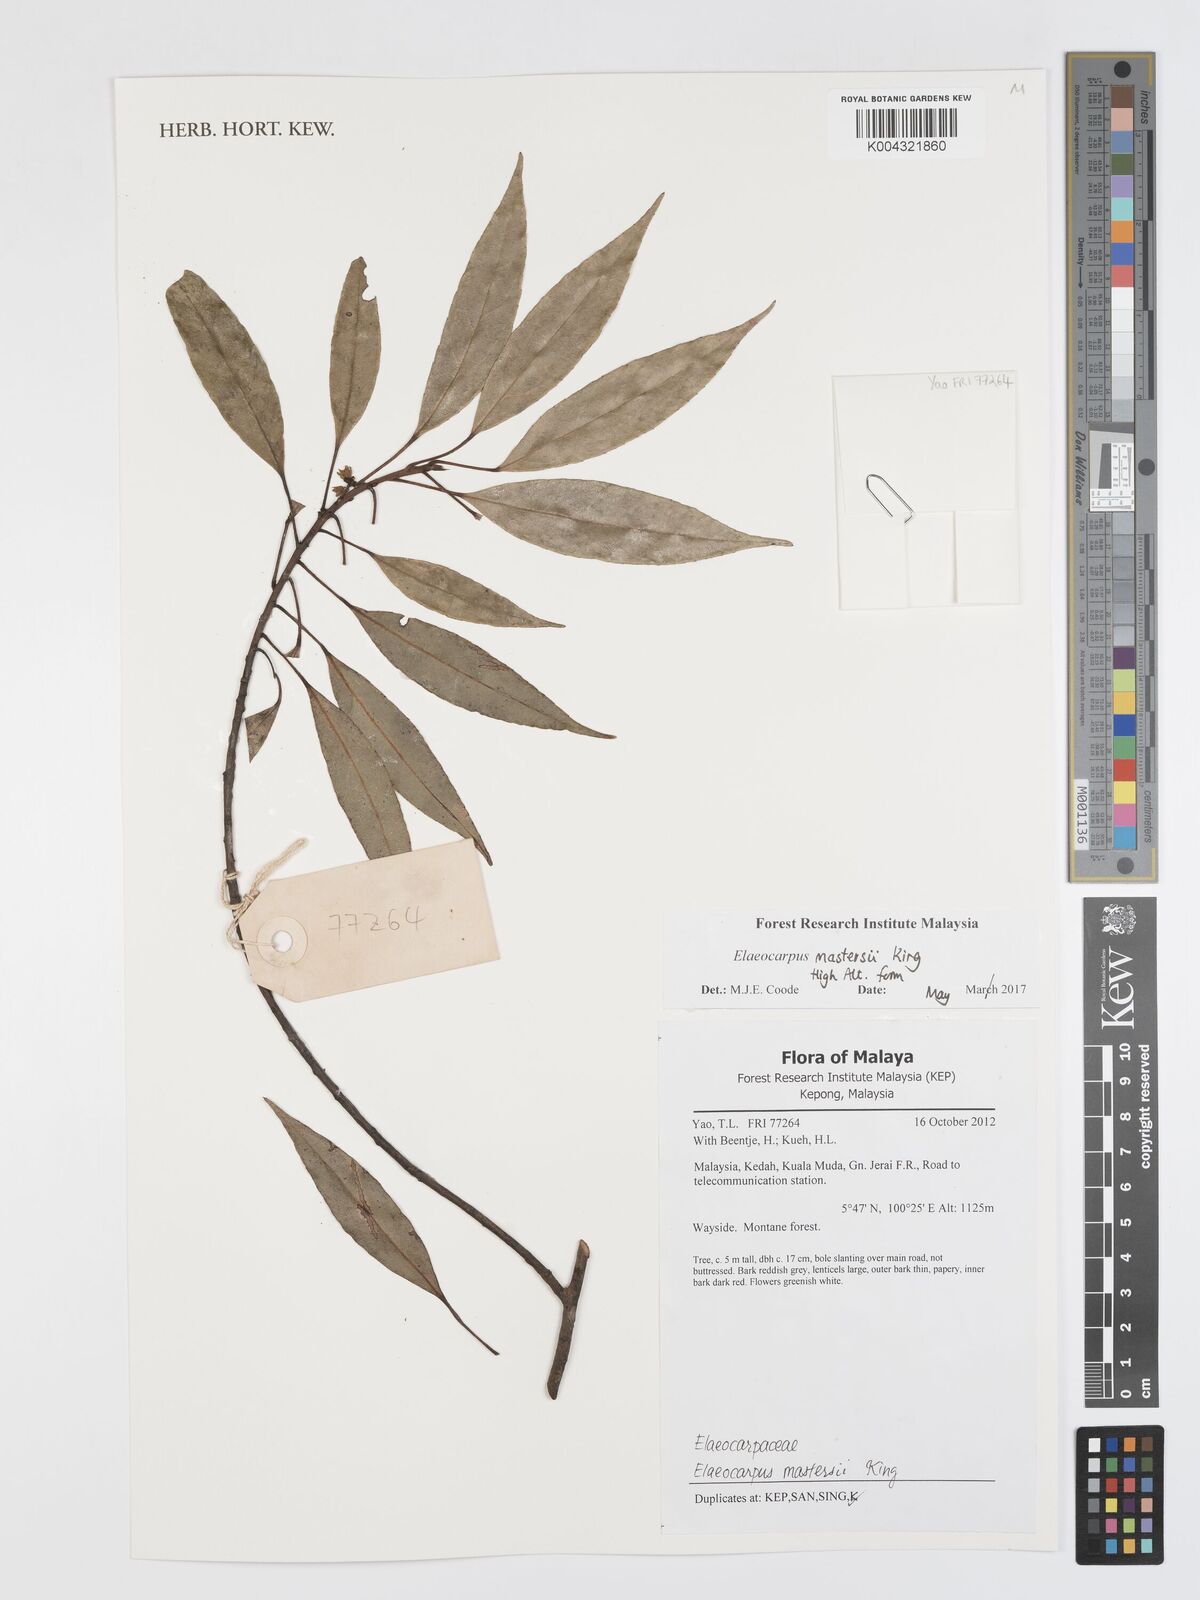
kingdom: Plantae
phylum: Tracheophyta
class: Magnoliopsida
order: Oxalidales
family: Elaeocarpaceae
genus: Elaeocarpus
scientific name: Elaeocarpus mastersii
